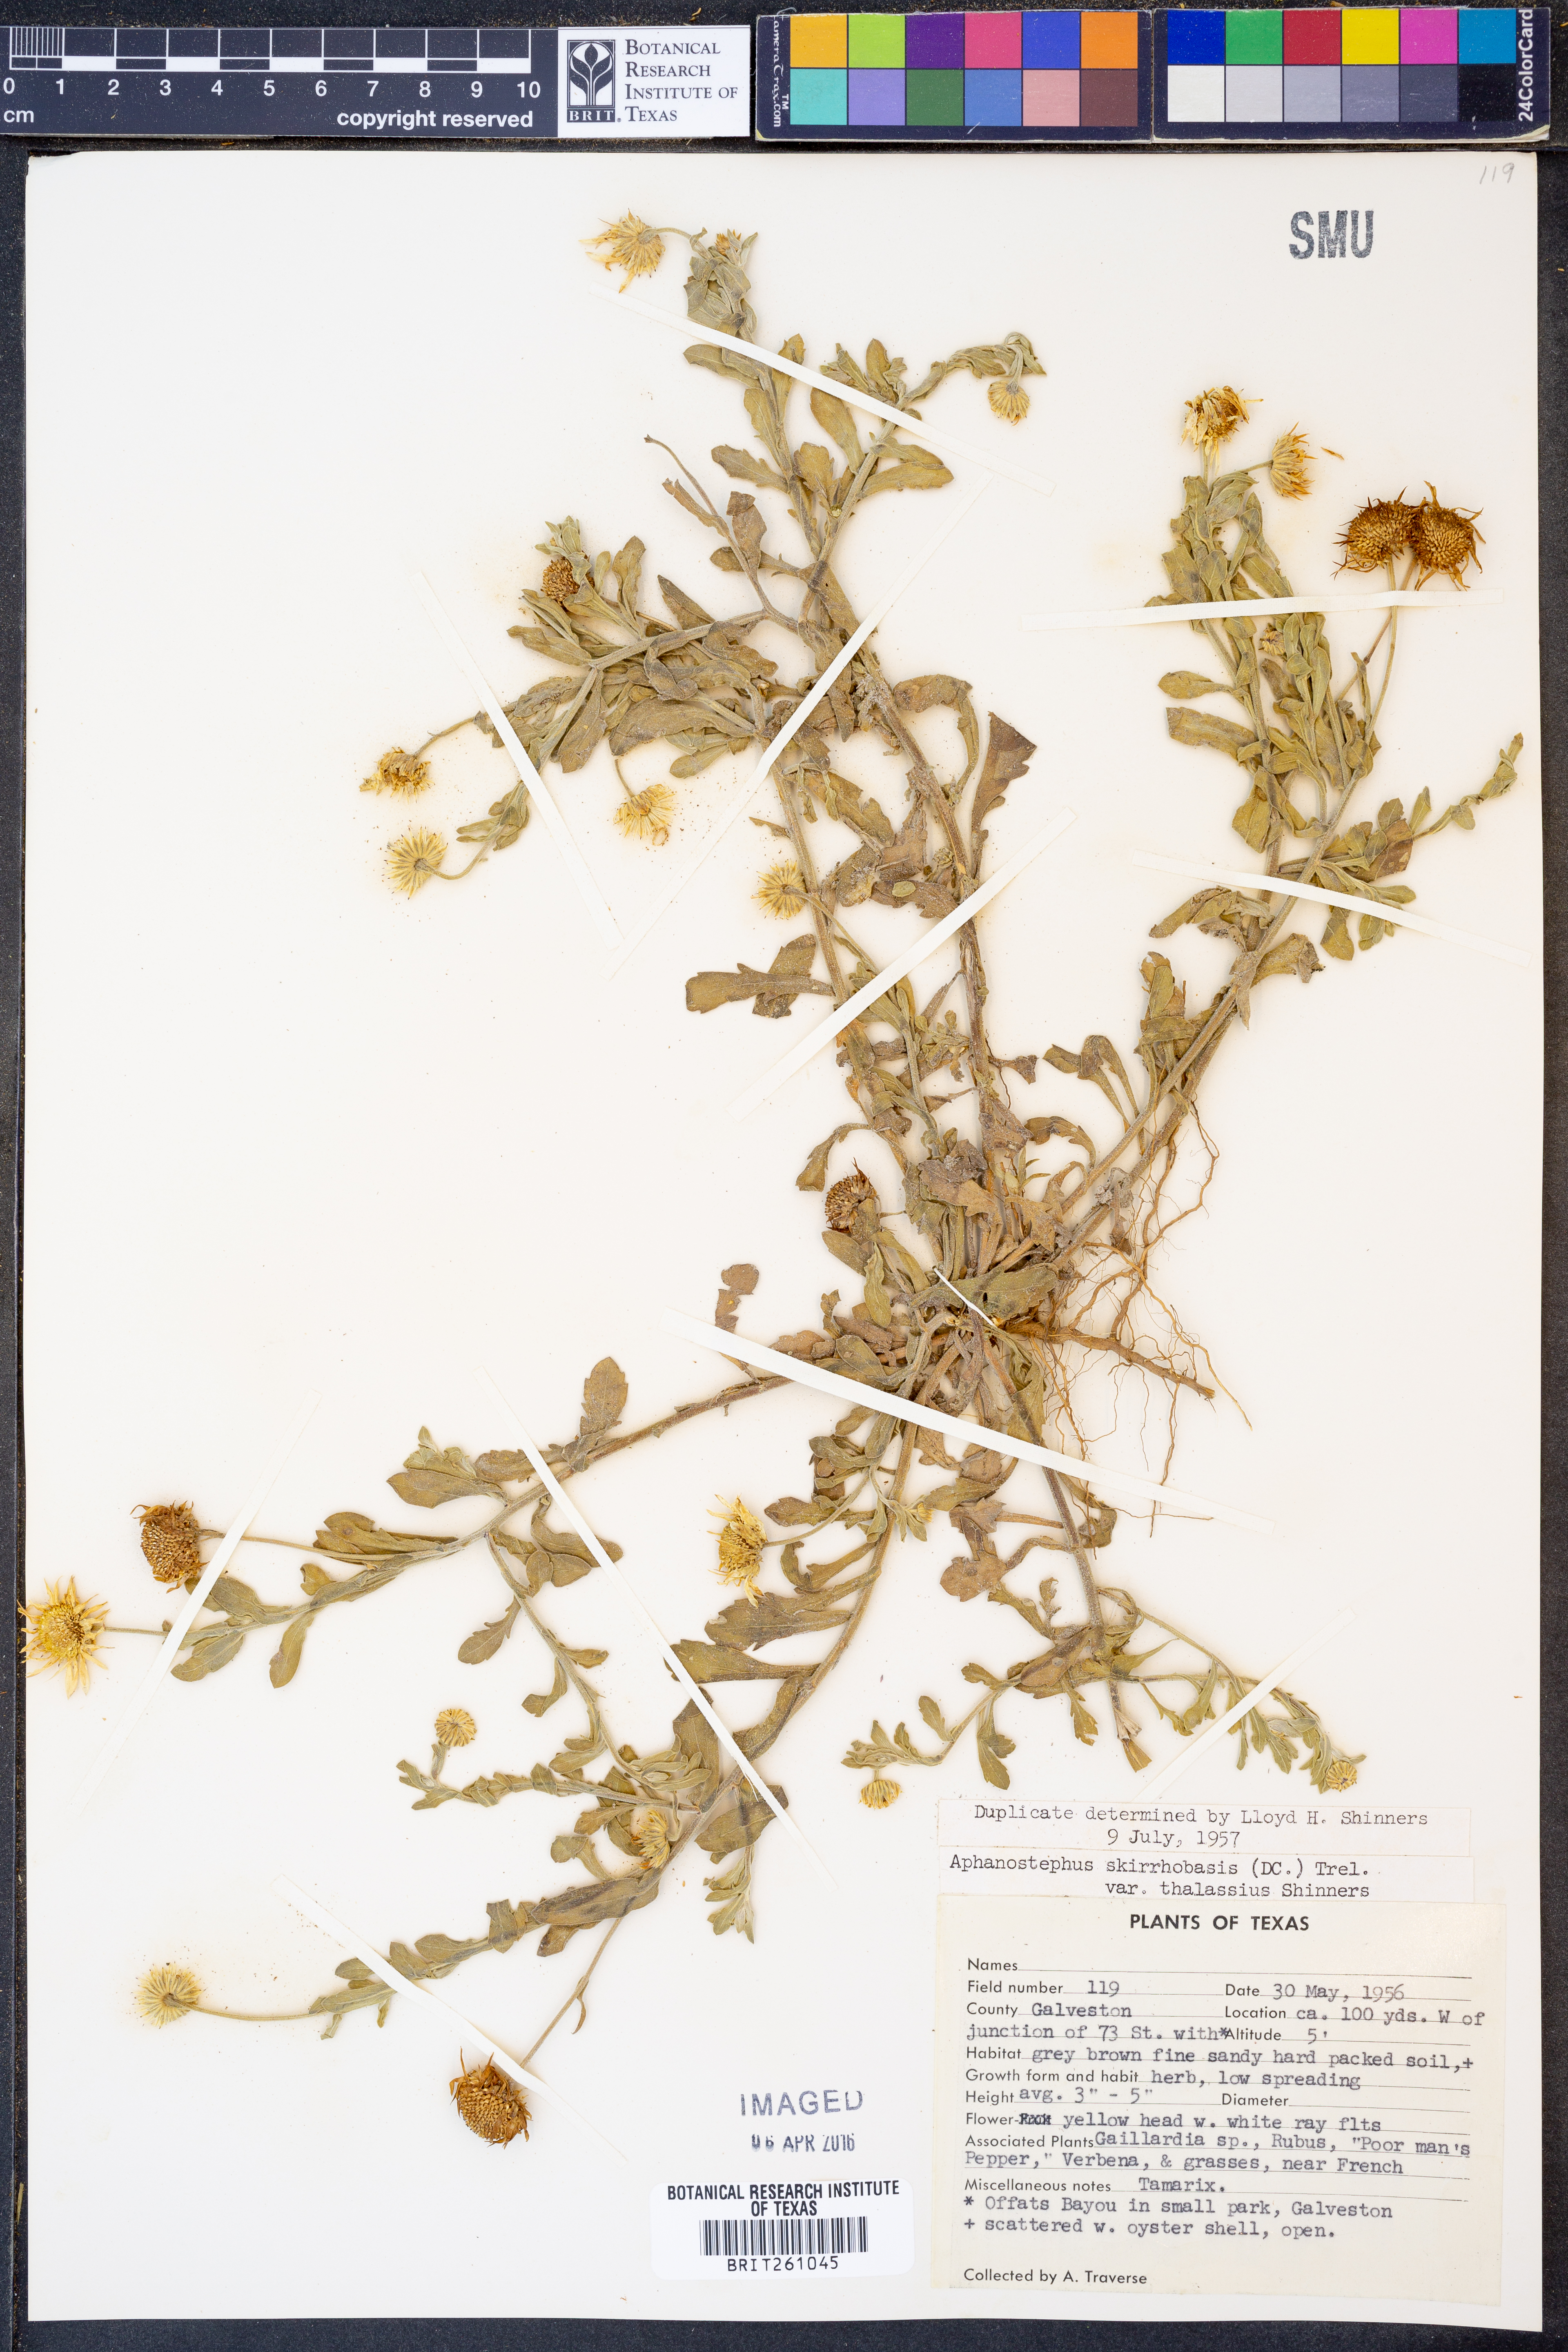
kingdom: Plantae
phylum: Tracheophyta
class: Magnoliopsida
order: Asterales
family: Asteraceae
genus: Aphanostephus
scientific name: Aphanostephus skirrhobasis
